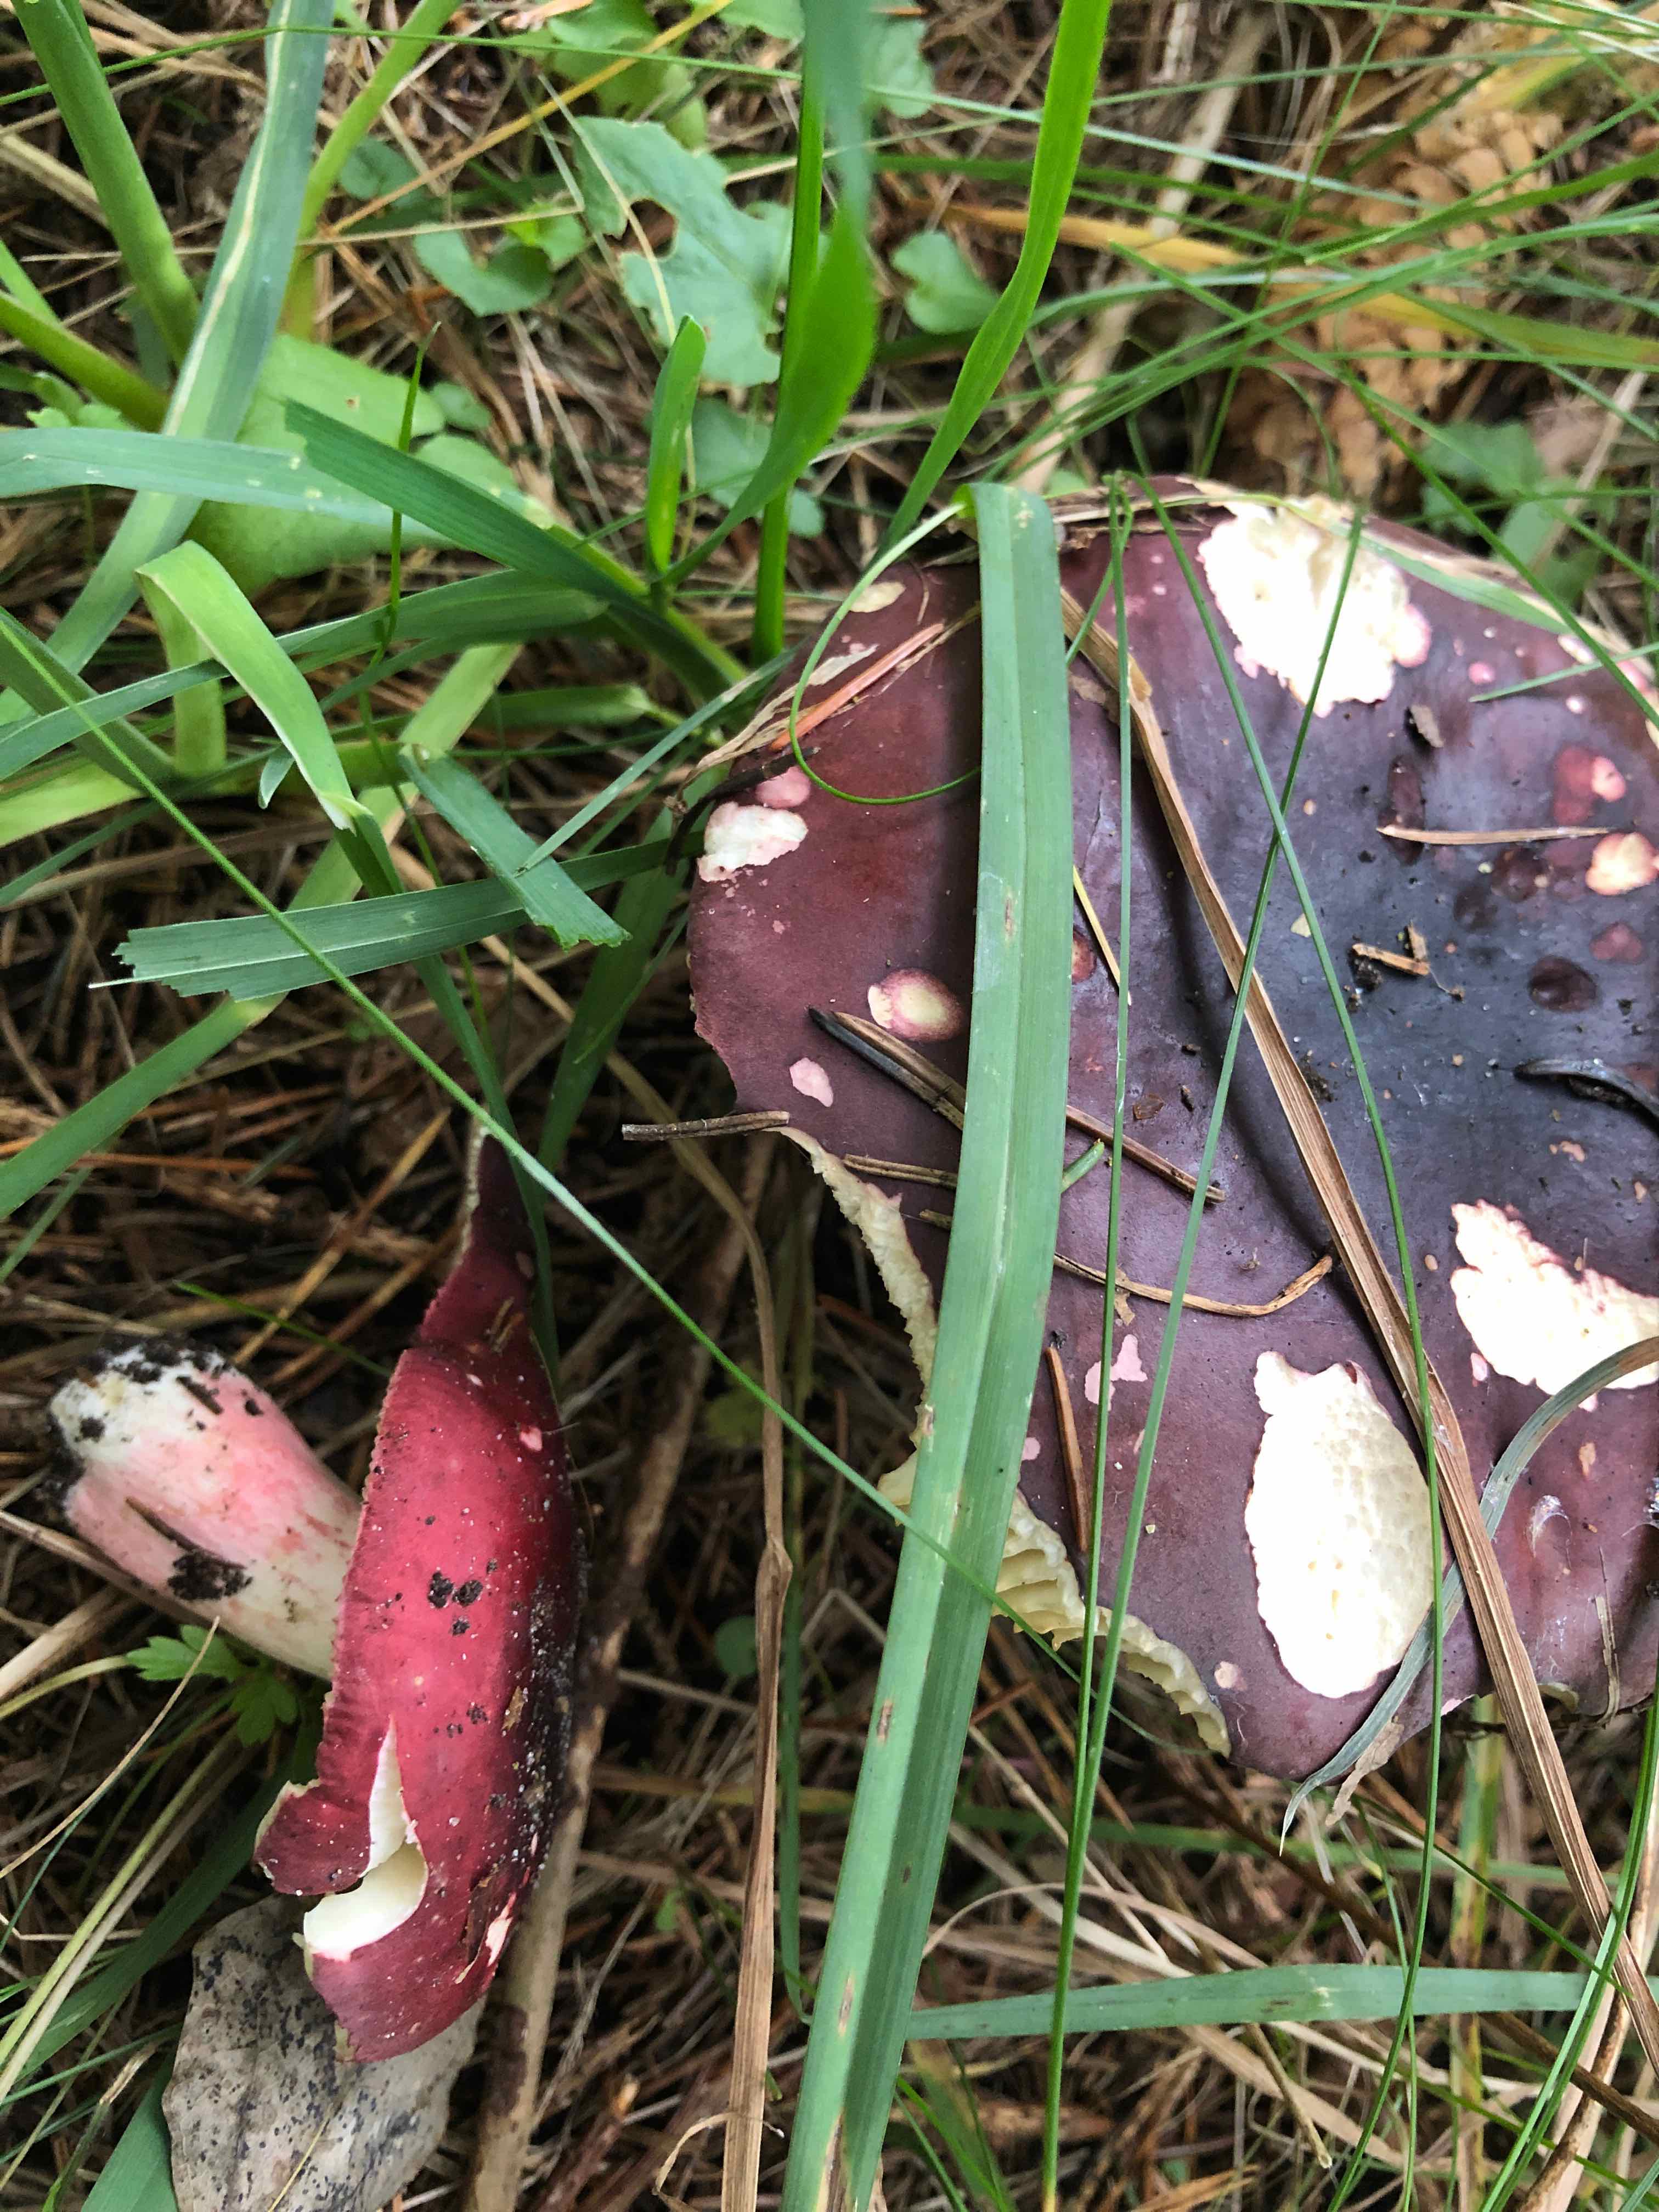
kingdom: Fungi
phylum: Basidiomycota
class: Agaricomycetes
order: Russulales
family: Russulaceae
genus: Russula
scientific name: Russula xerampelina
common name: hummer-skørhat
